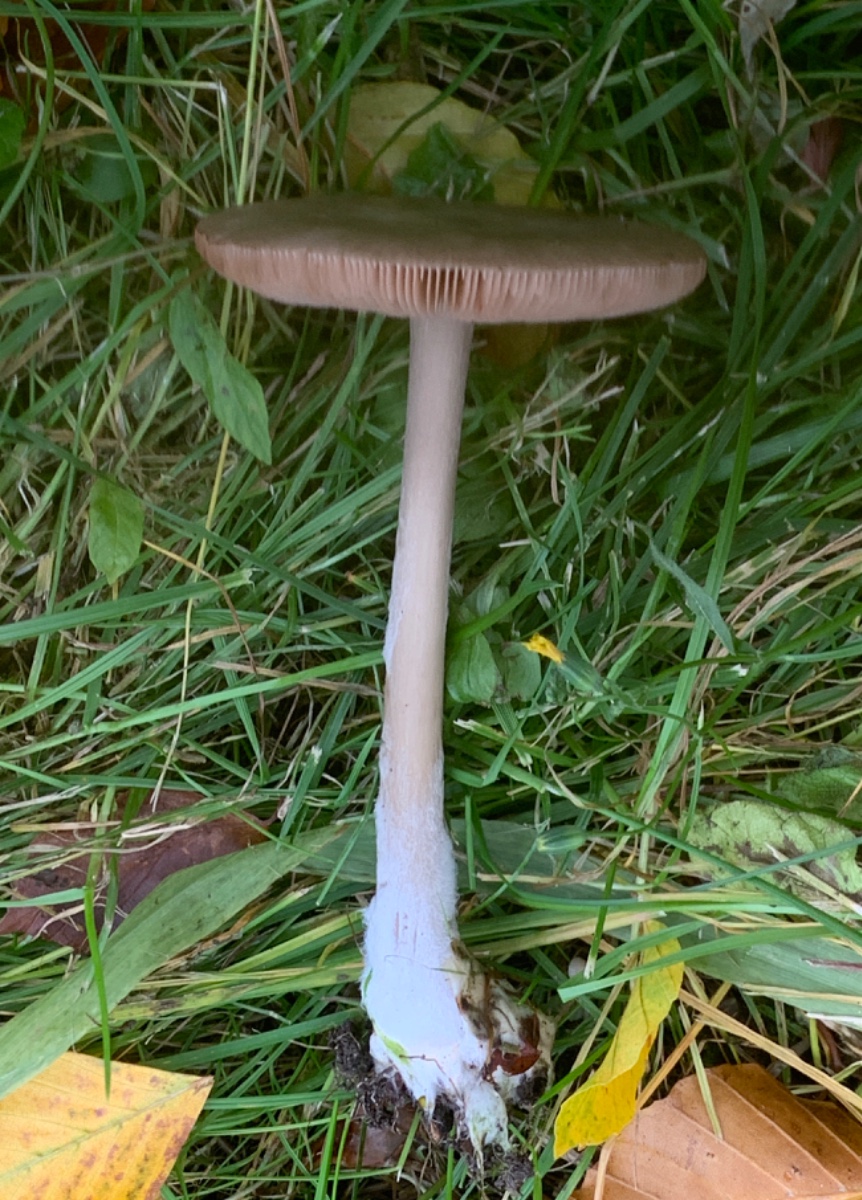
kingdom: Fungi
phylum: Basidiomycota
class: Agaricomycetes
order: Agaricales
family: Pluteaceae
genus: Volvopluteus
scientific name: Volvopluteus gloiocephalus
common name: høj posesvamp
